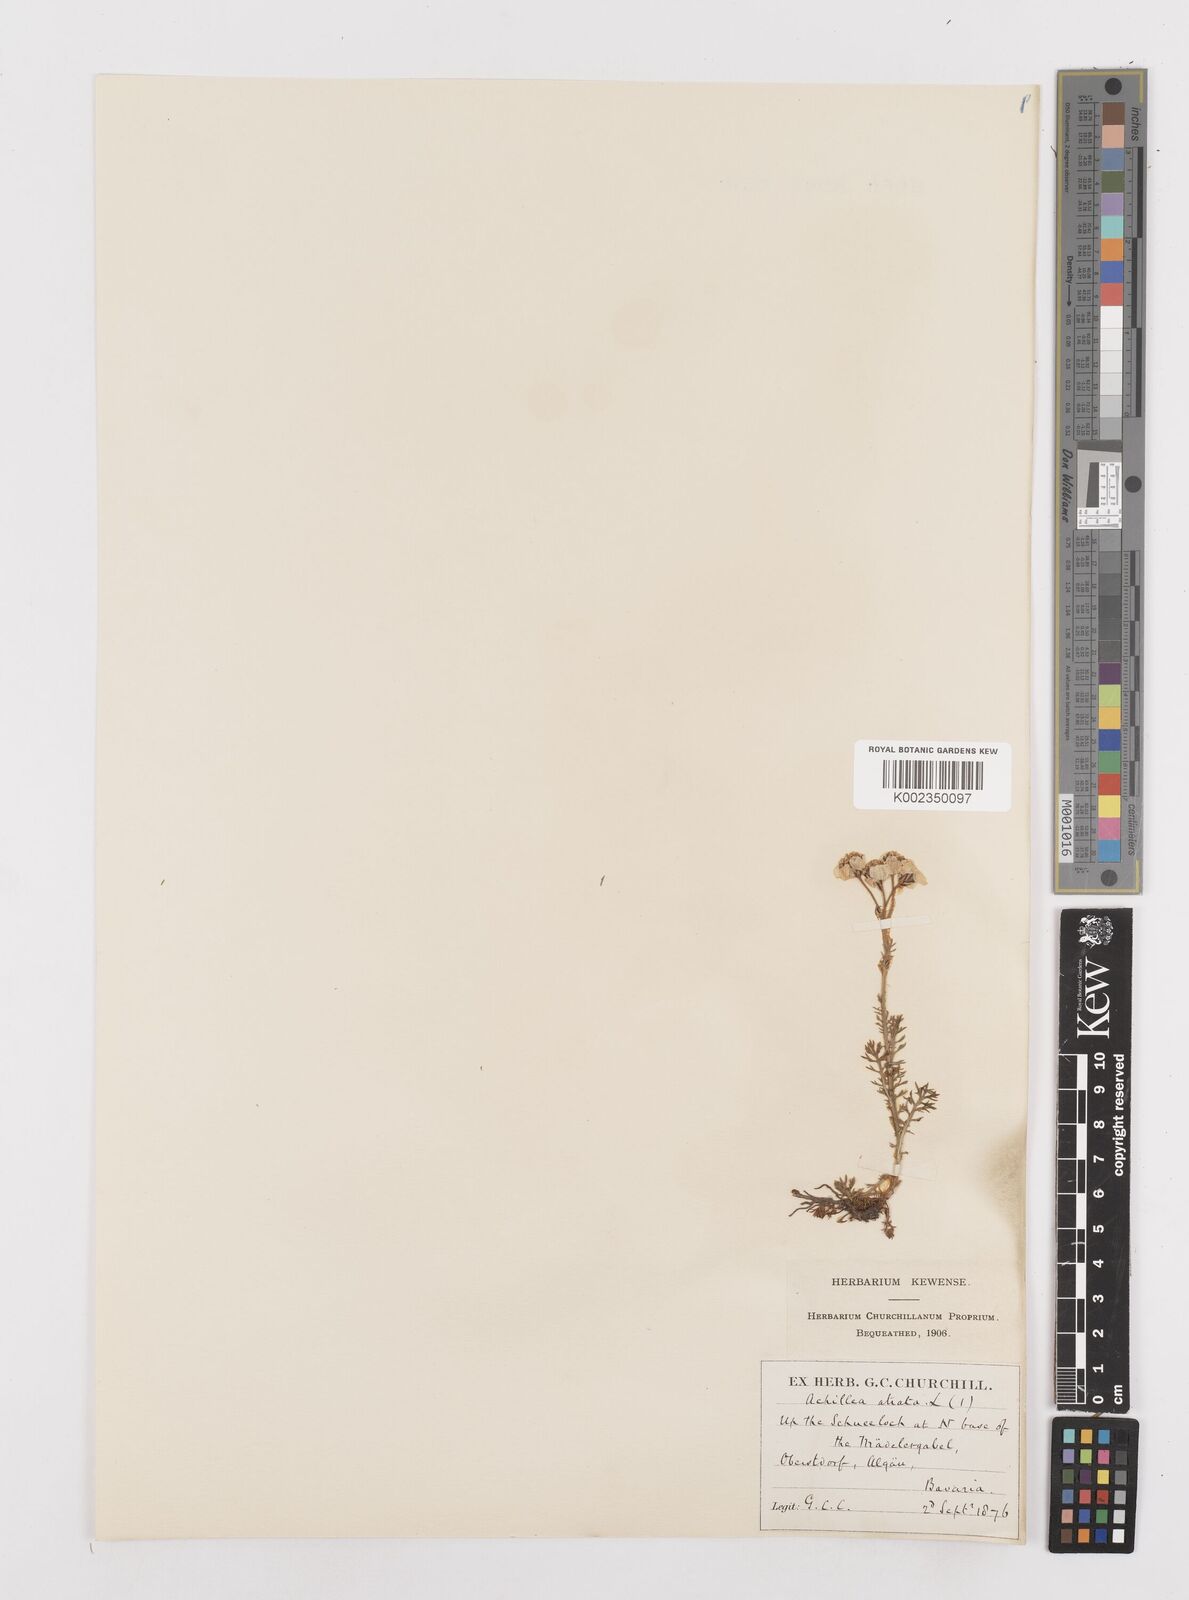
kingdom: Plantae
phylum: Tracheophyta
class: Magnoliopsida
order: Asterales
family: Asteraceae
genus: Achillea
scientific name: Achillea atrata
